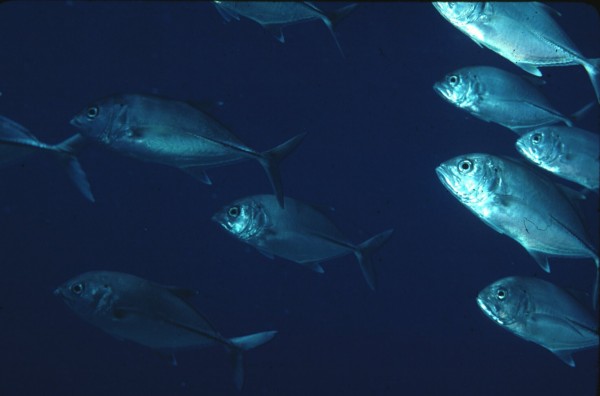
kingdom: Animalia
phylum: Chordata
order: Perciformes
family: Carangidae
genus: Caranx
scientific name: Caranx sexfasciatus
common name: Bigeye trevally
